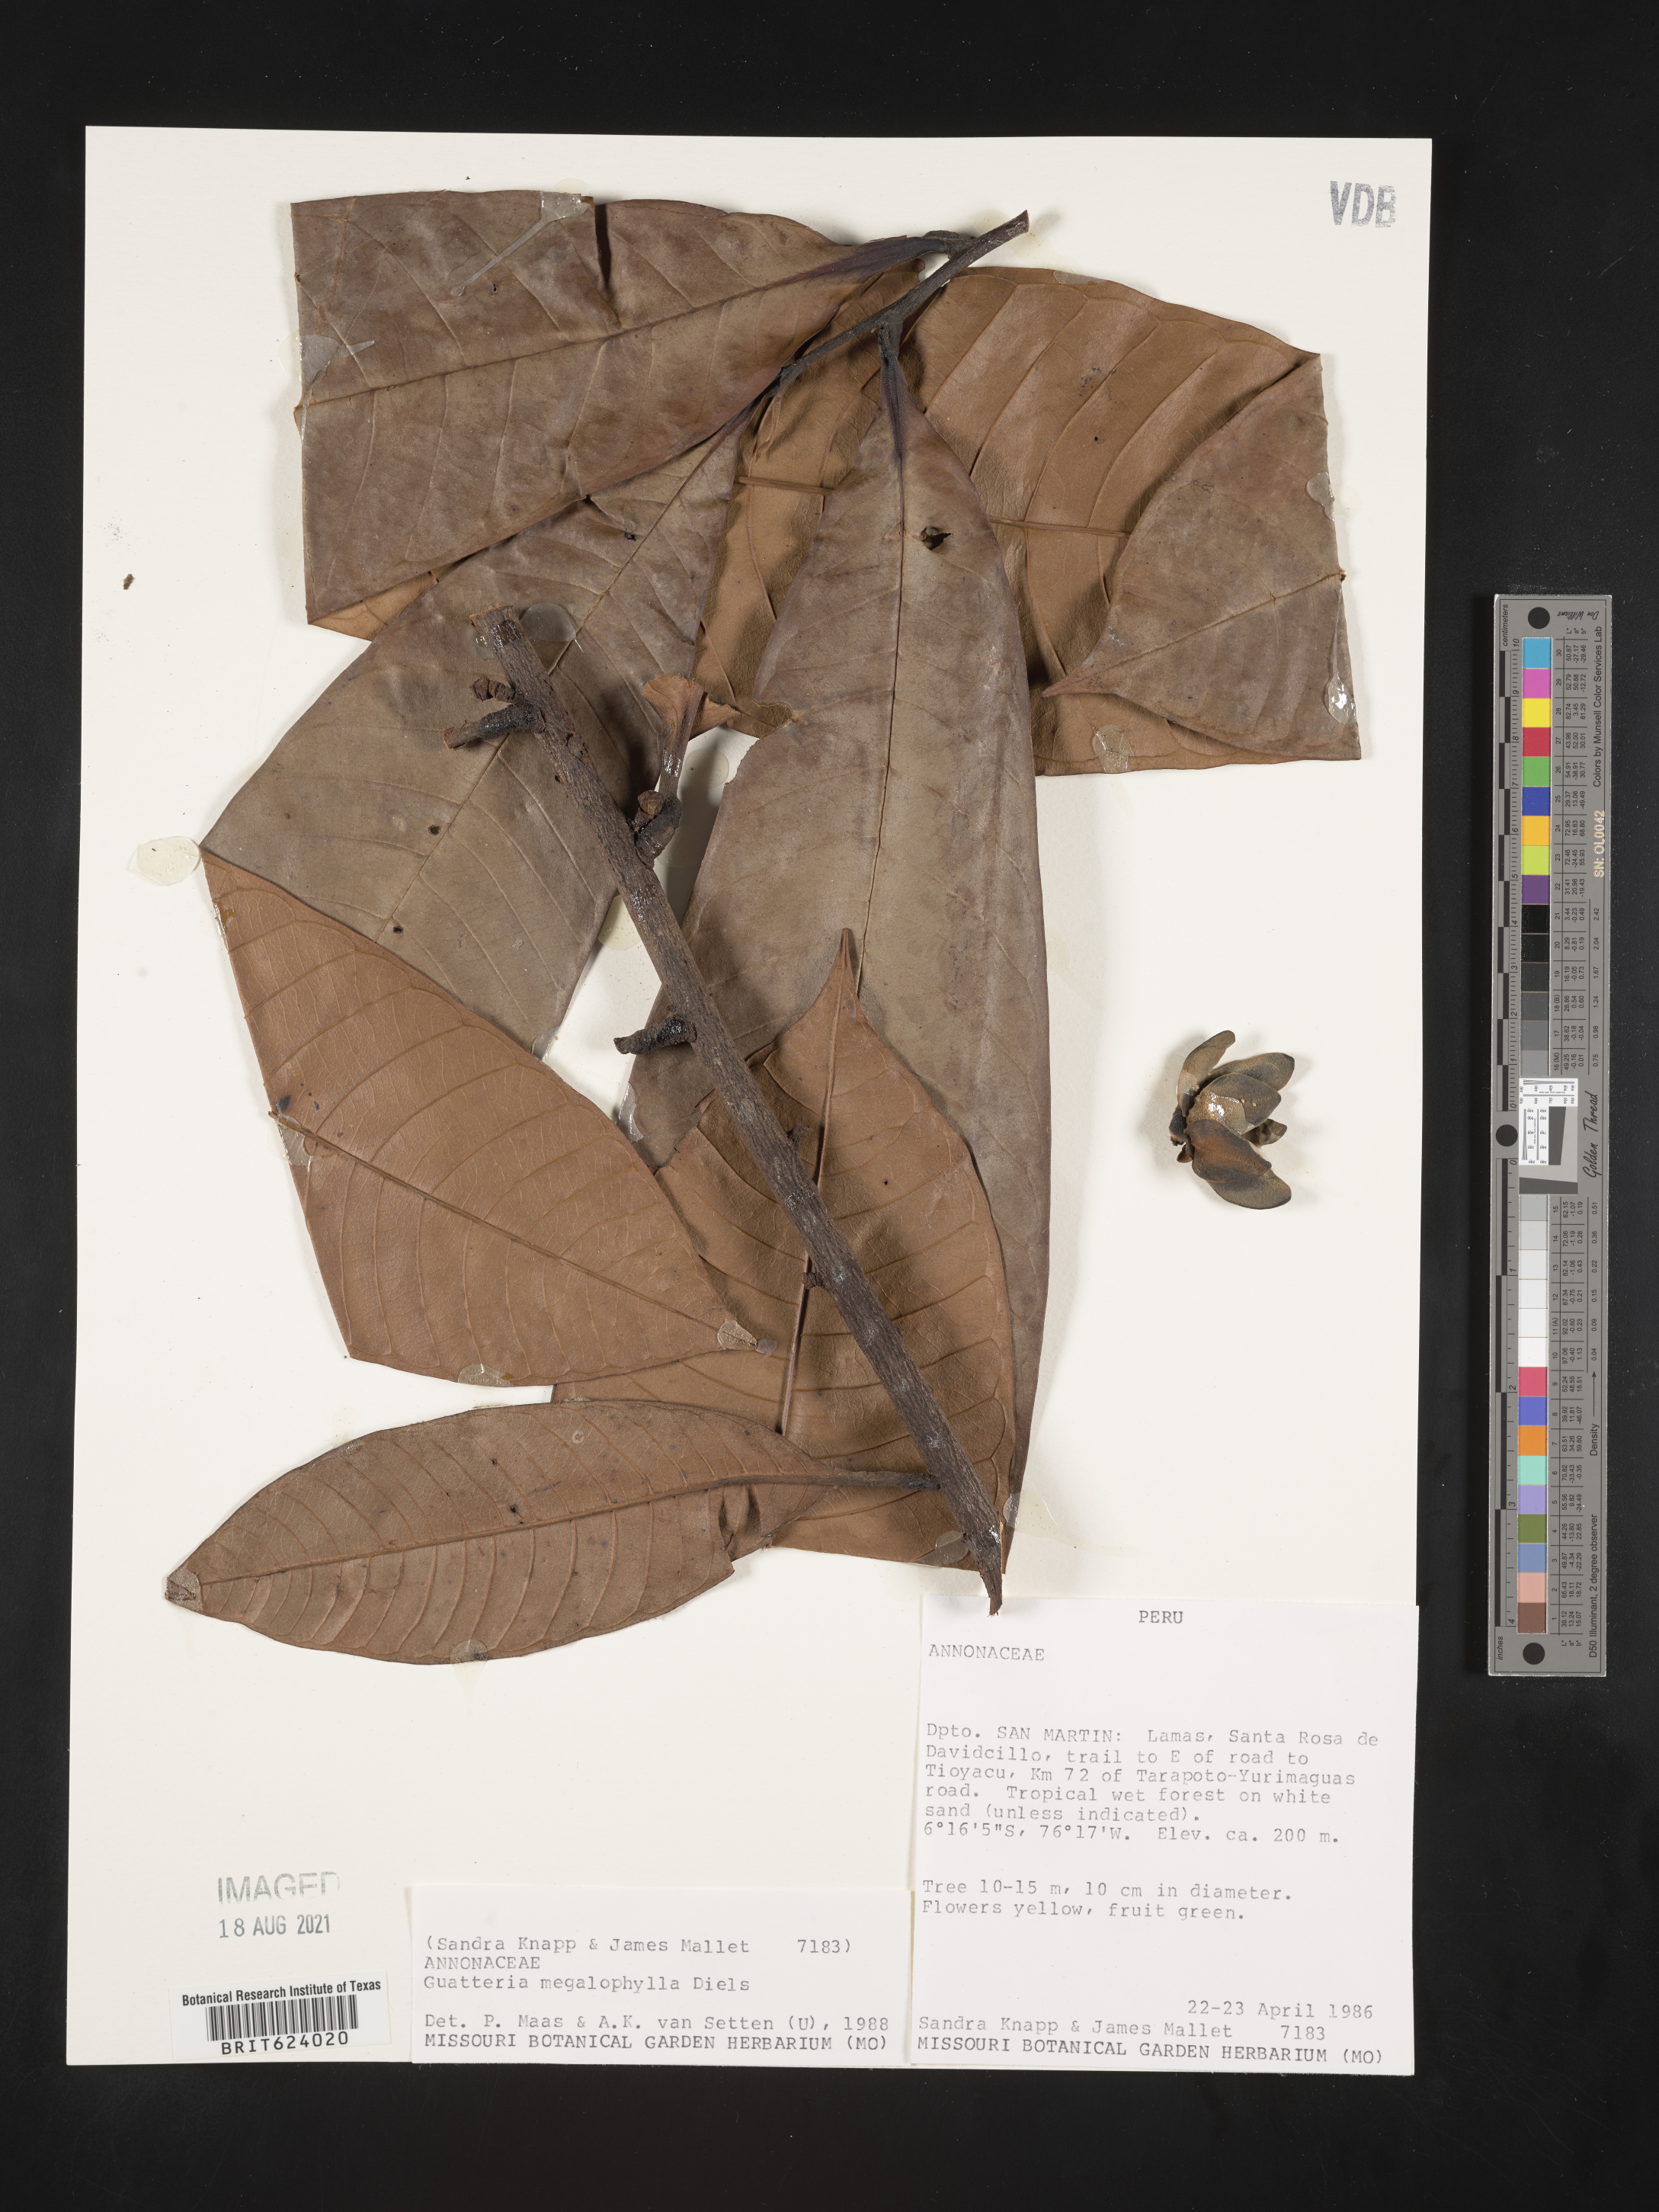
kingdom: Plantae
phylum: Tracheophyta
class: Magnoliopsida
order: Magnoliales
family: Annonaceae
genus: Guatteria
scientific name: Guatteria megalophylla
